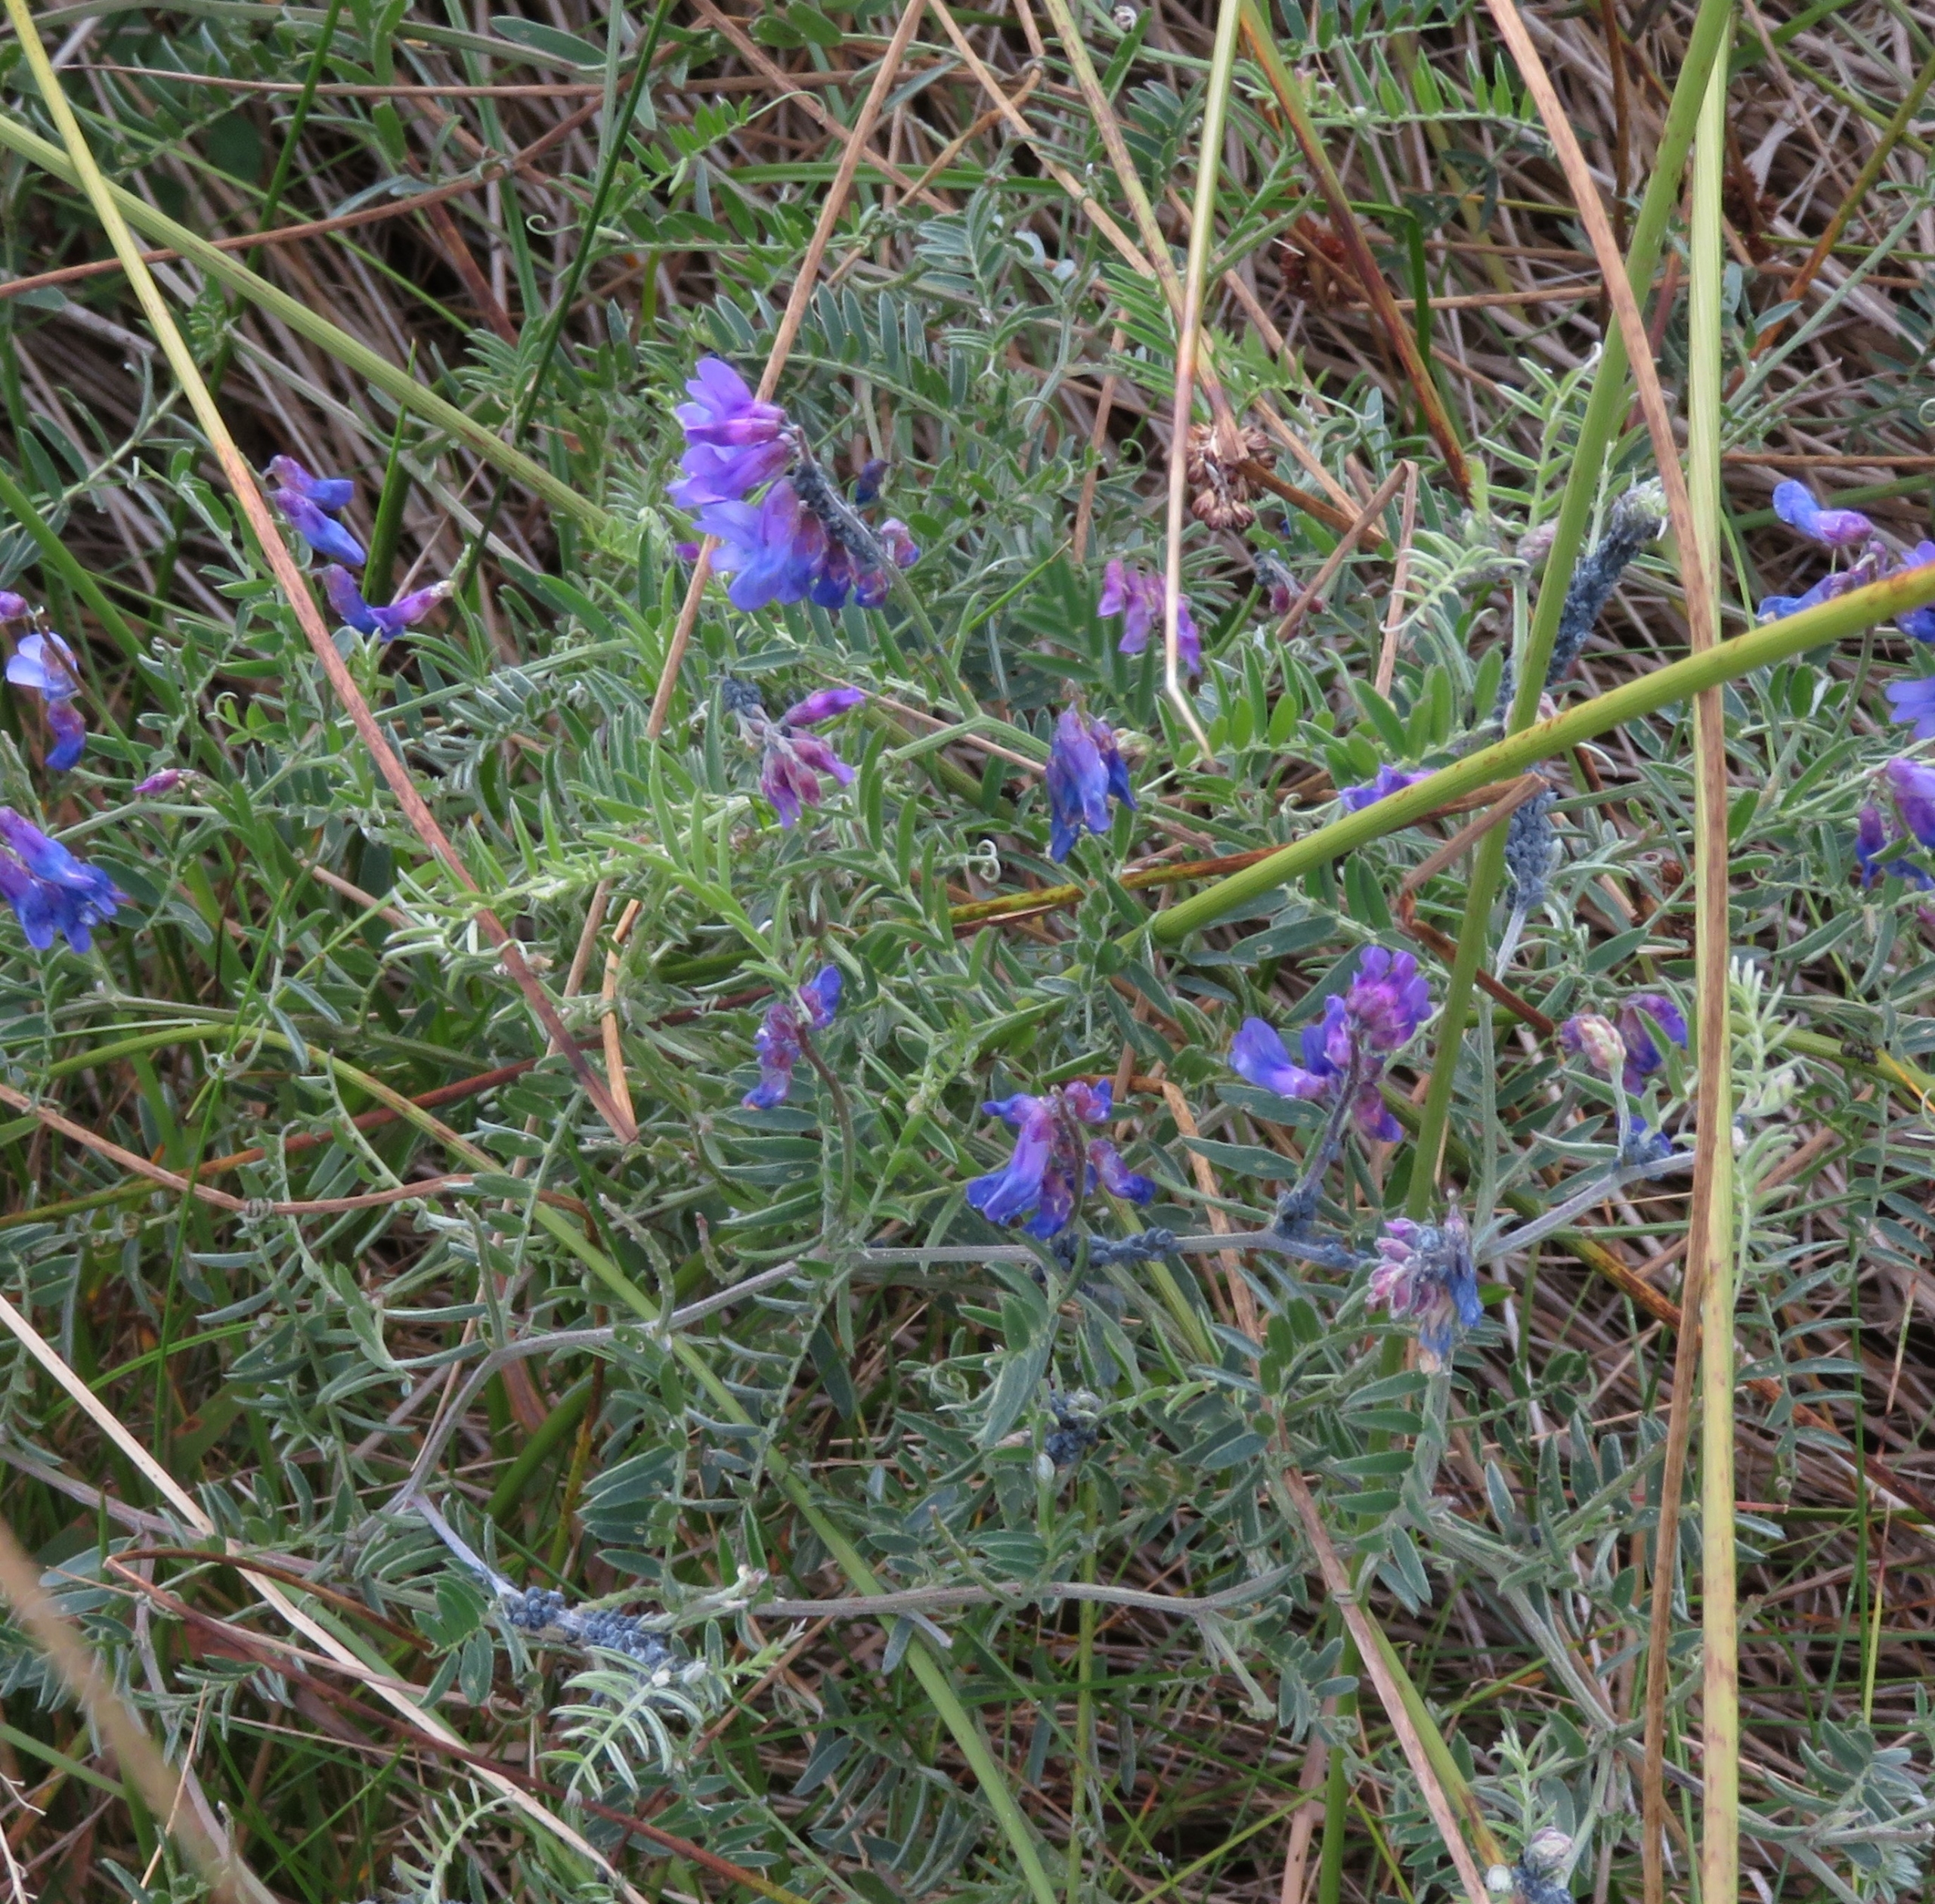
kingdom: Plantae
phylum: Tracheophyta
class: Magnoliopsida
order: Fabales
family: Fabaceae
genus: Vicia
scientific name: Vicia cracca
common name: Muse-vikke
